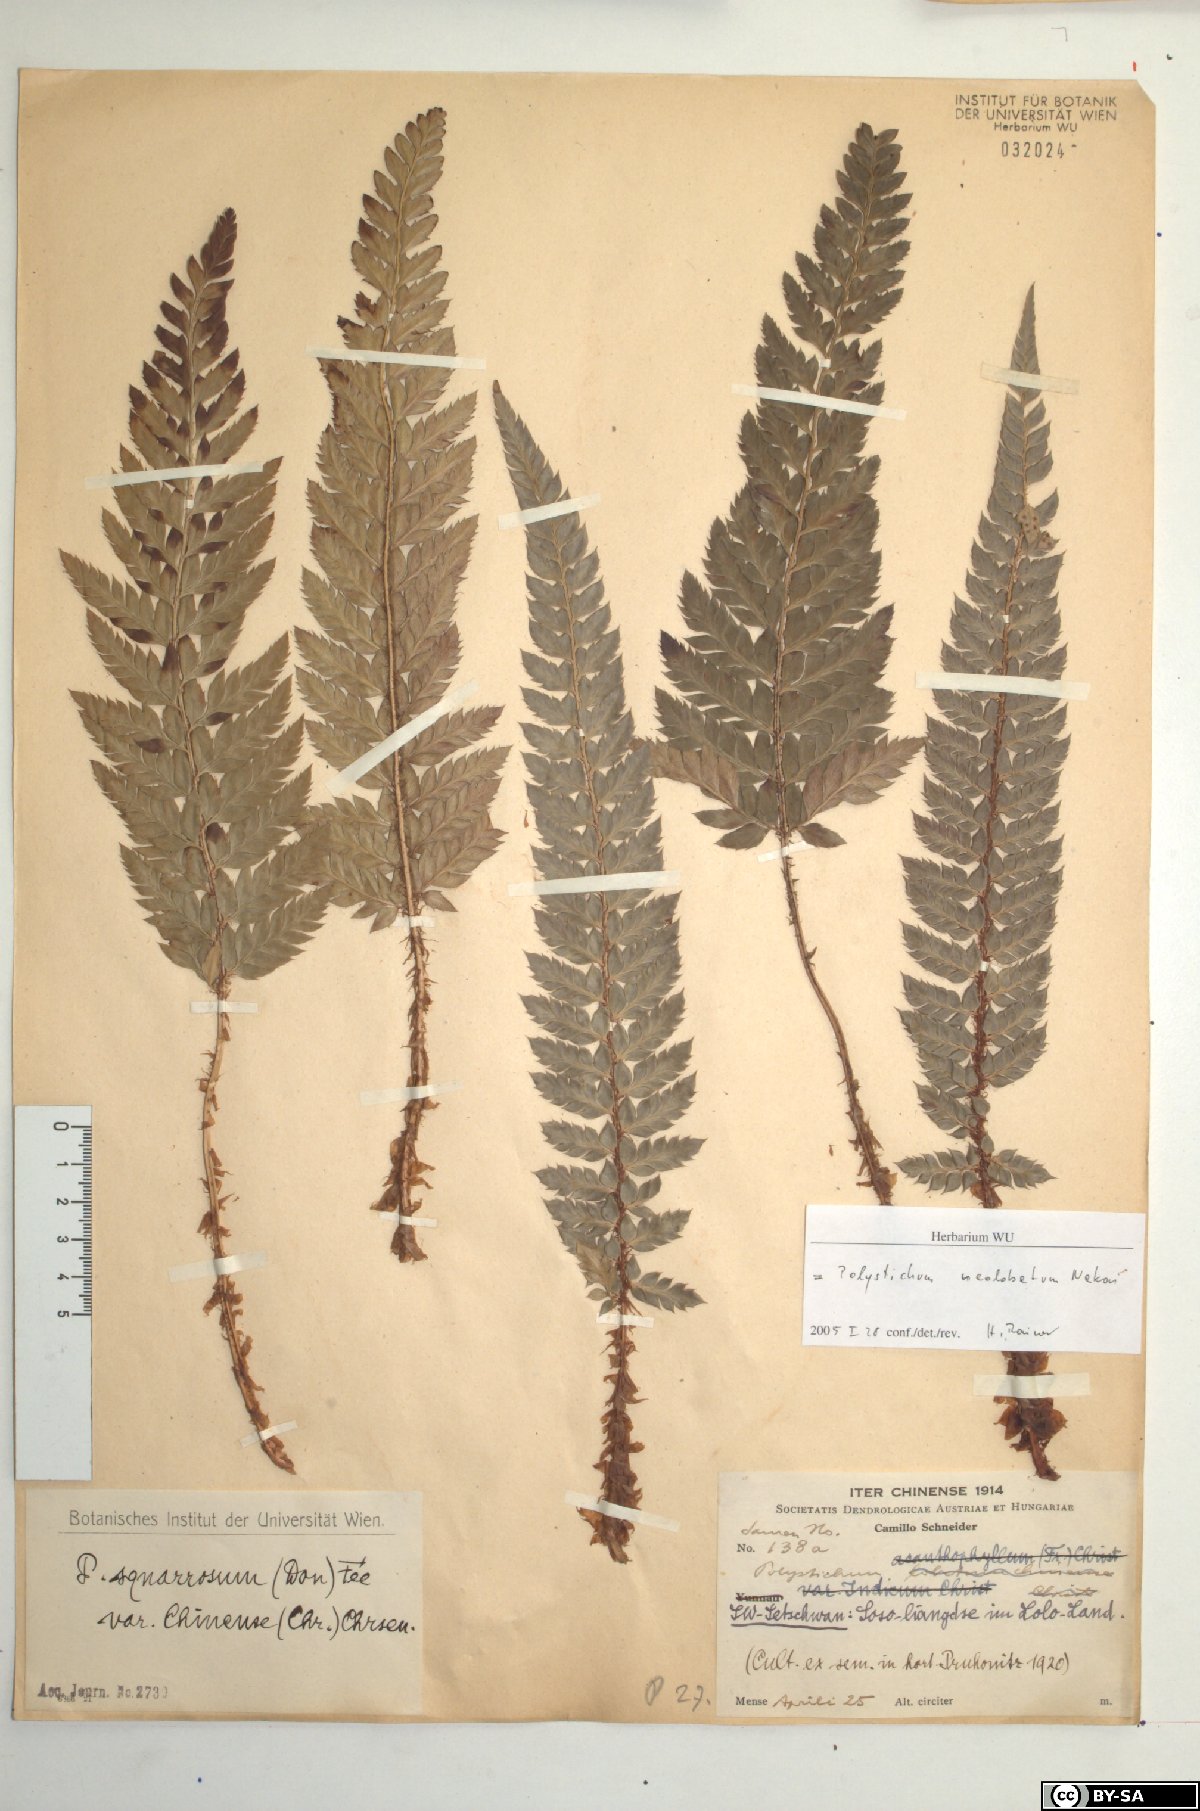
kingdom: Plantae
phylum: Tracheophyta
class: Polypodiopsida
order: Polypodiales
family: Dryopteridaceae
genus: Polystichum
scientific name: Polystichum neolobatum
